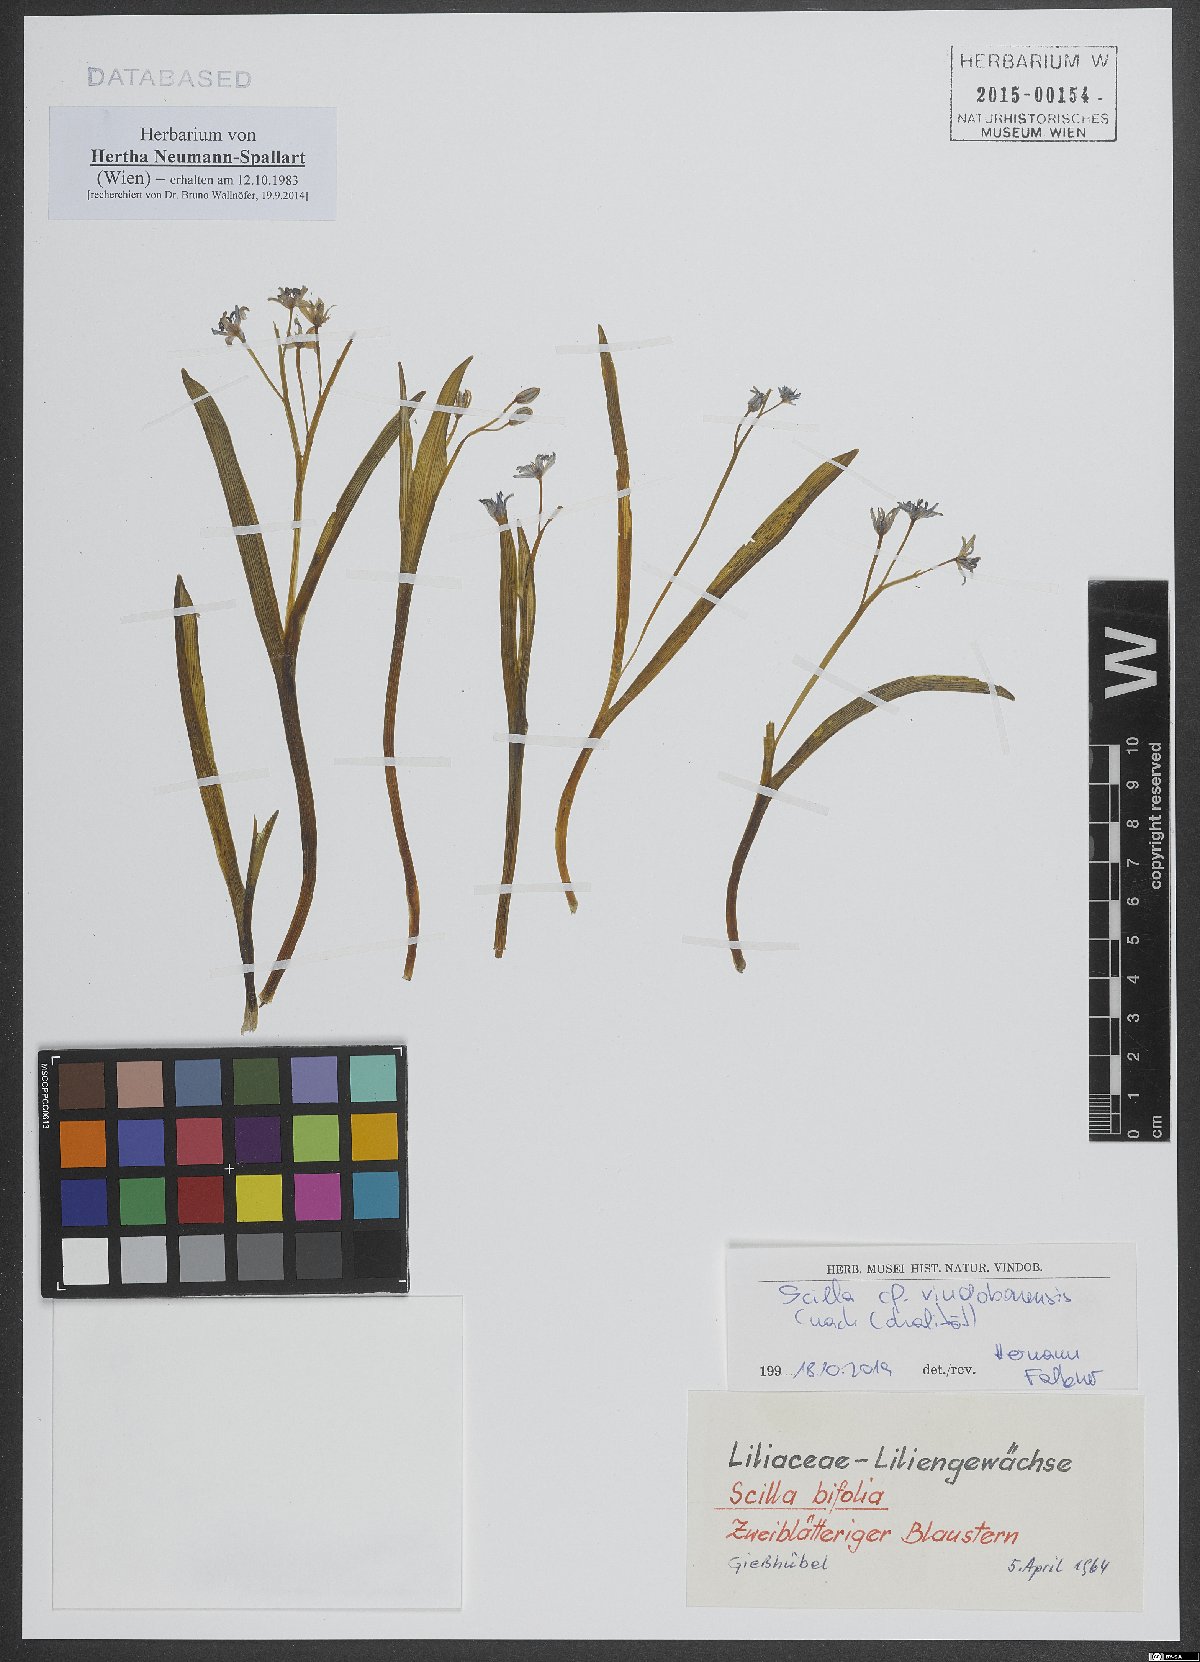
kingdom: Plantae
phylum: Tracheophyta
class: Liliopsida
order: Asparagales
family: Asparagaceae
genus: Scilla
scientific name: Scilla vindobonensis
